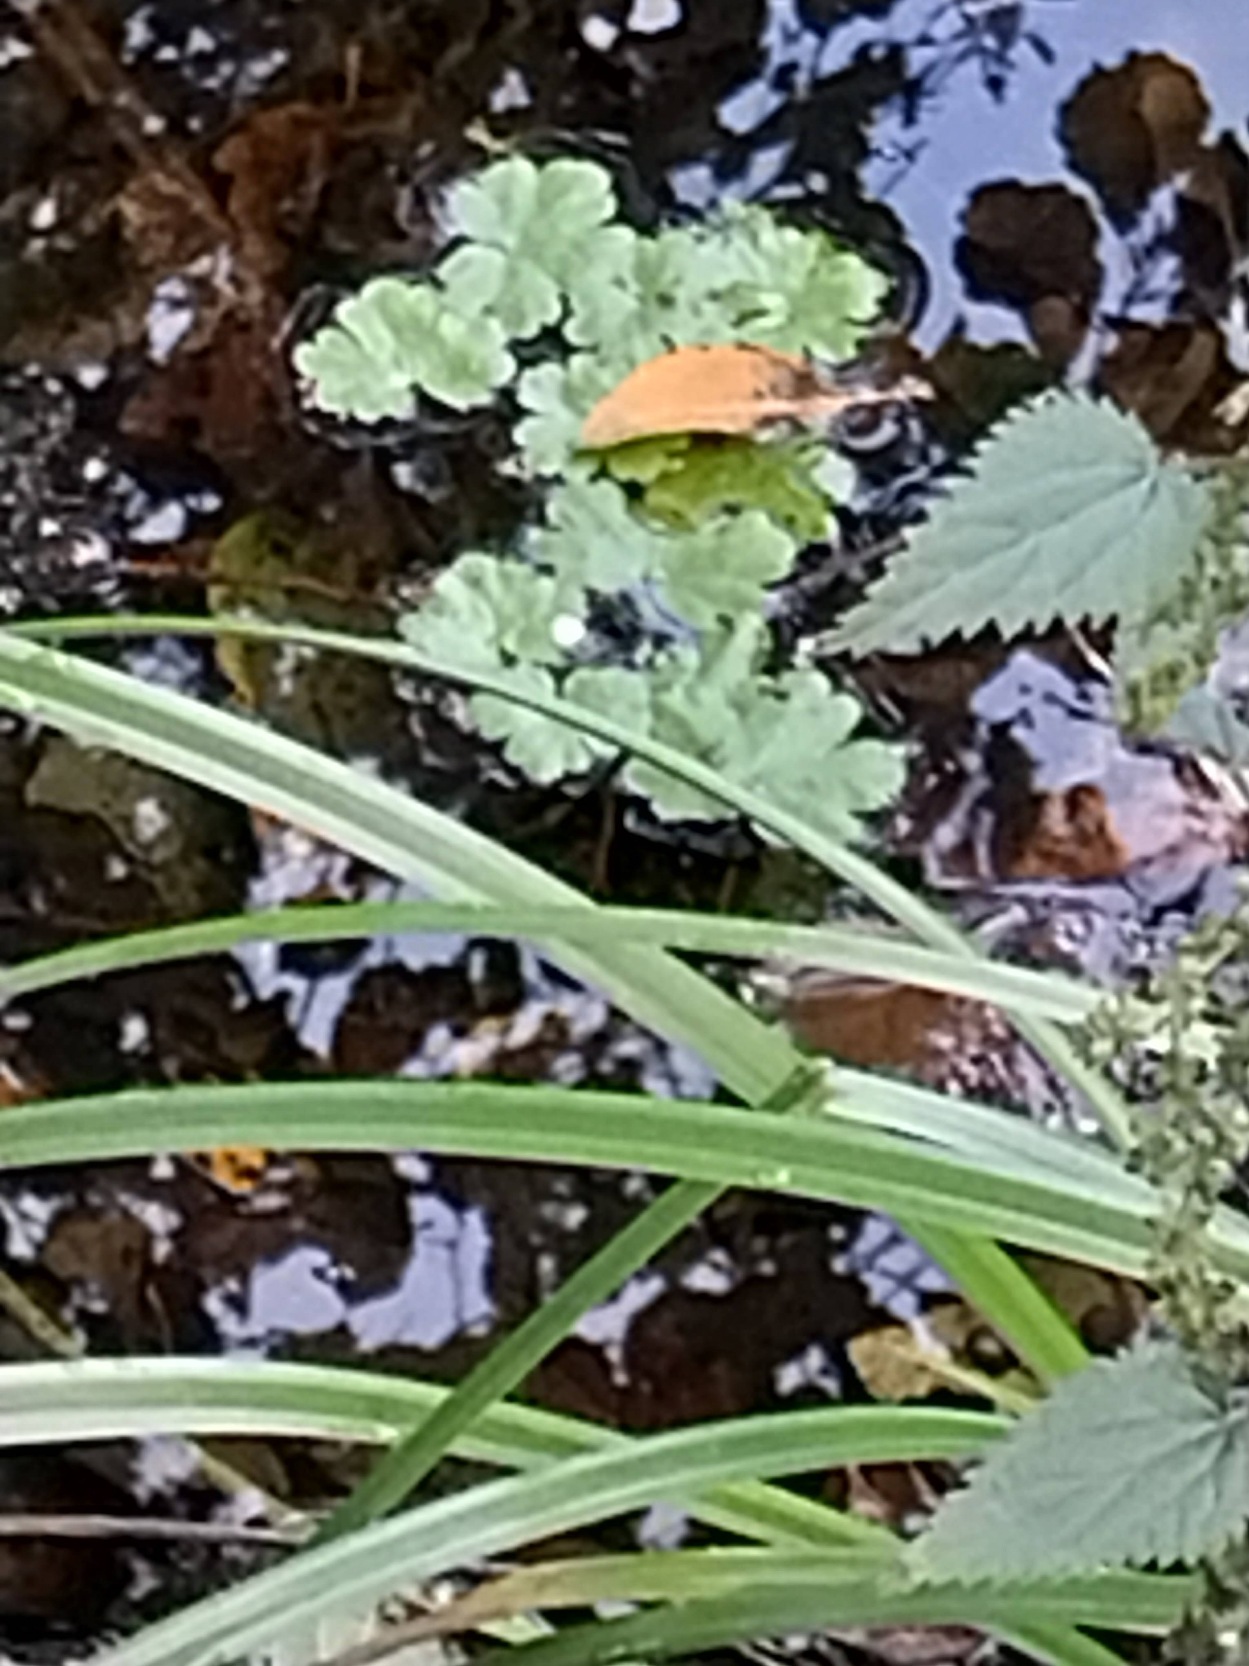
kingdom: Plantae
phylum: Tracheophyta
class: Magnoliopsida
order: Ranunculales
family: Ranunculaceae
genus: Ranunculus
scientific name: Ranunculus sceleratus
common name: Tigger-ranunkel
